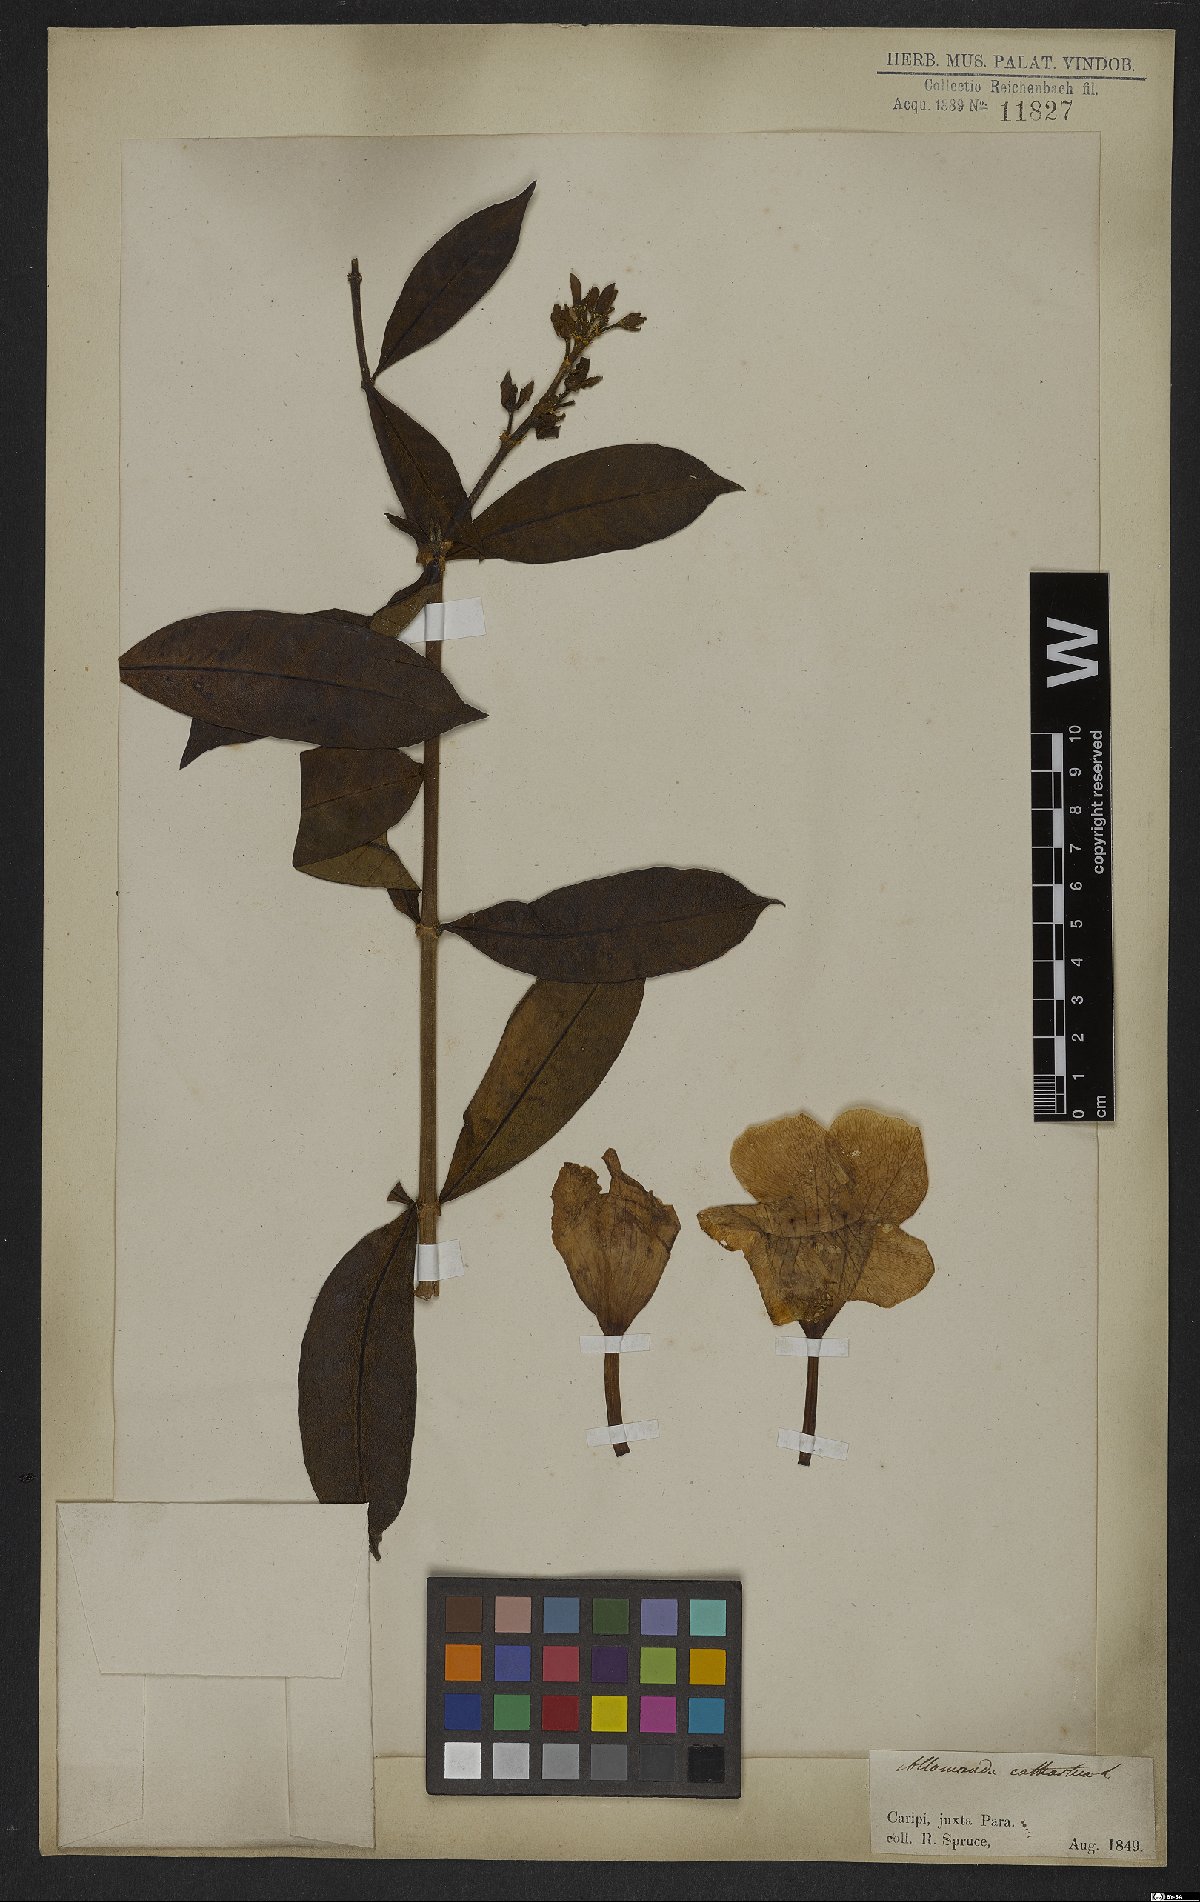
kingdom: Plantae
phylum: Tracheophyta
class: Magnoliopsida
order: Gentianales
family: Apocynaceae
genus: Allamanda
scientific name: Allamanda cathartica
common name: Golden trumpet
